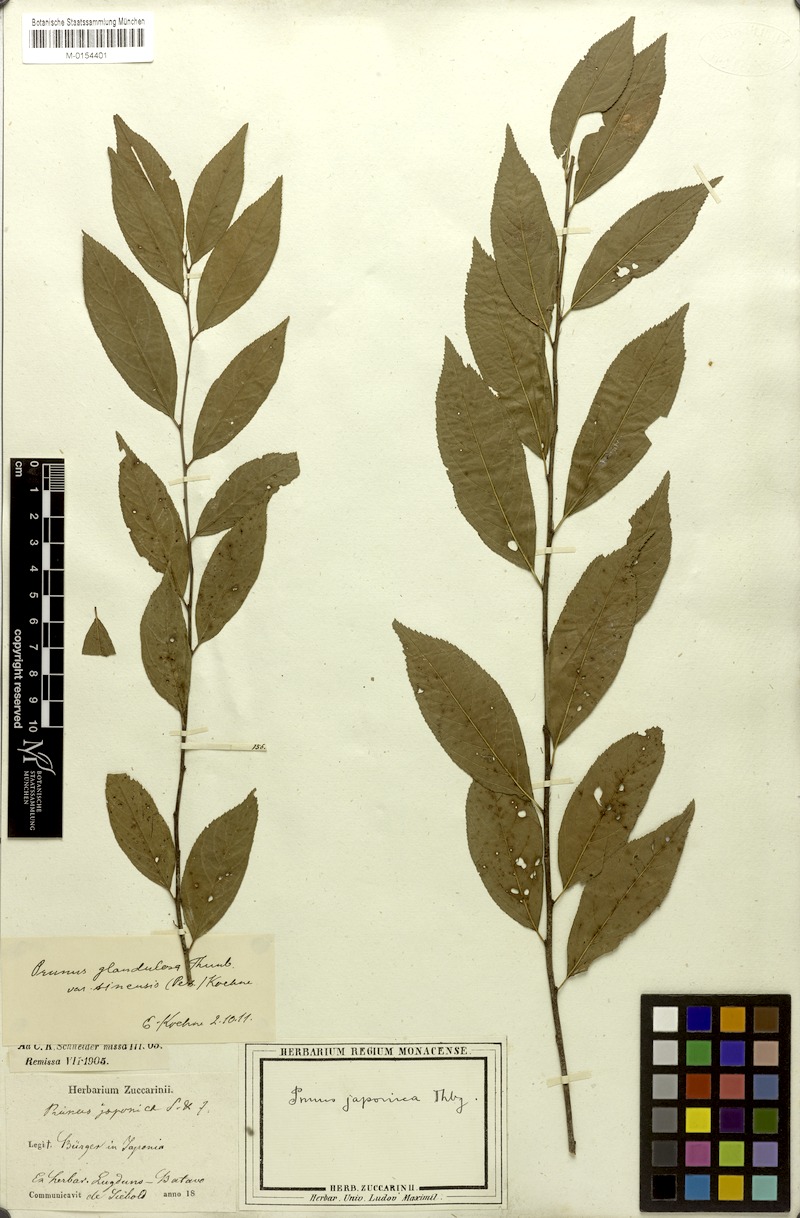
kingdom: Plantae
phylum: Tracheophyta
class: Magnoliopsida
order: Rosales
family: Rosaceae
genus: Prunus
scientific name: Prunus glandulosa
